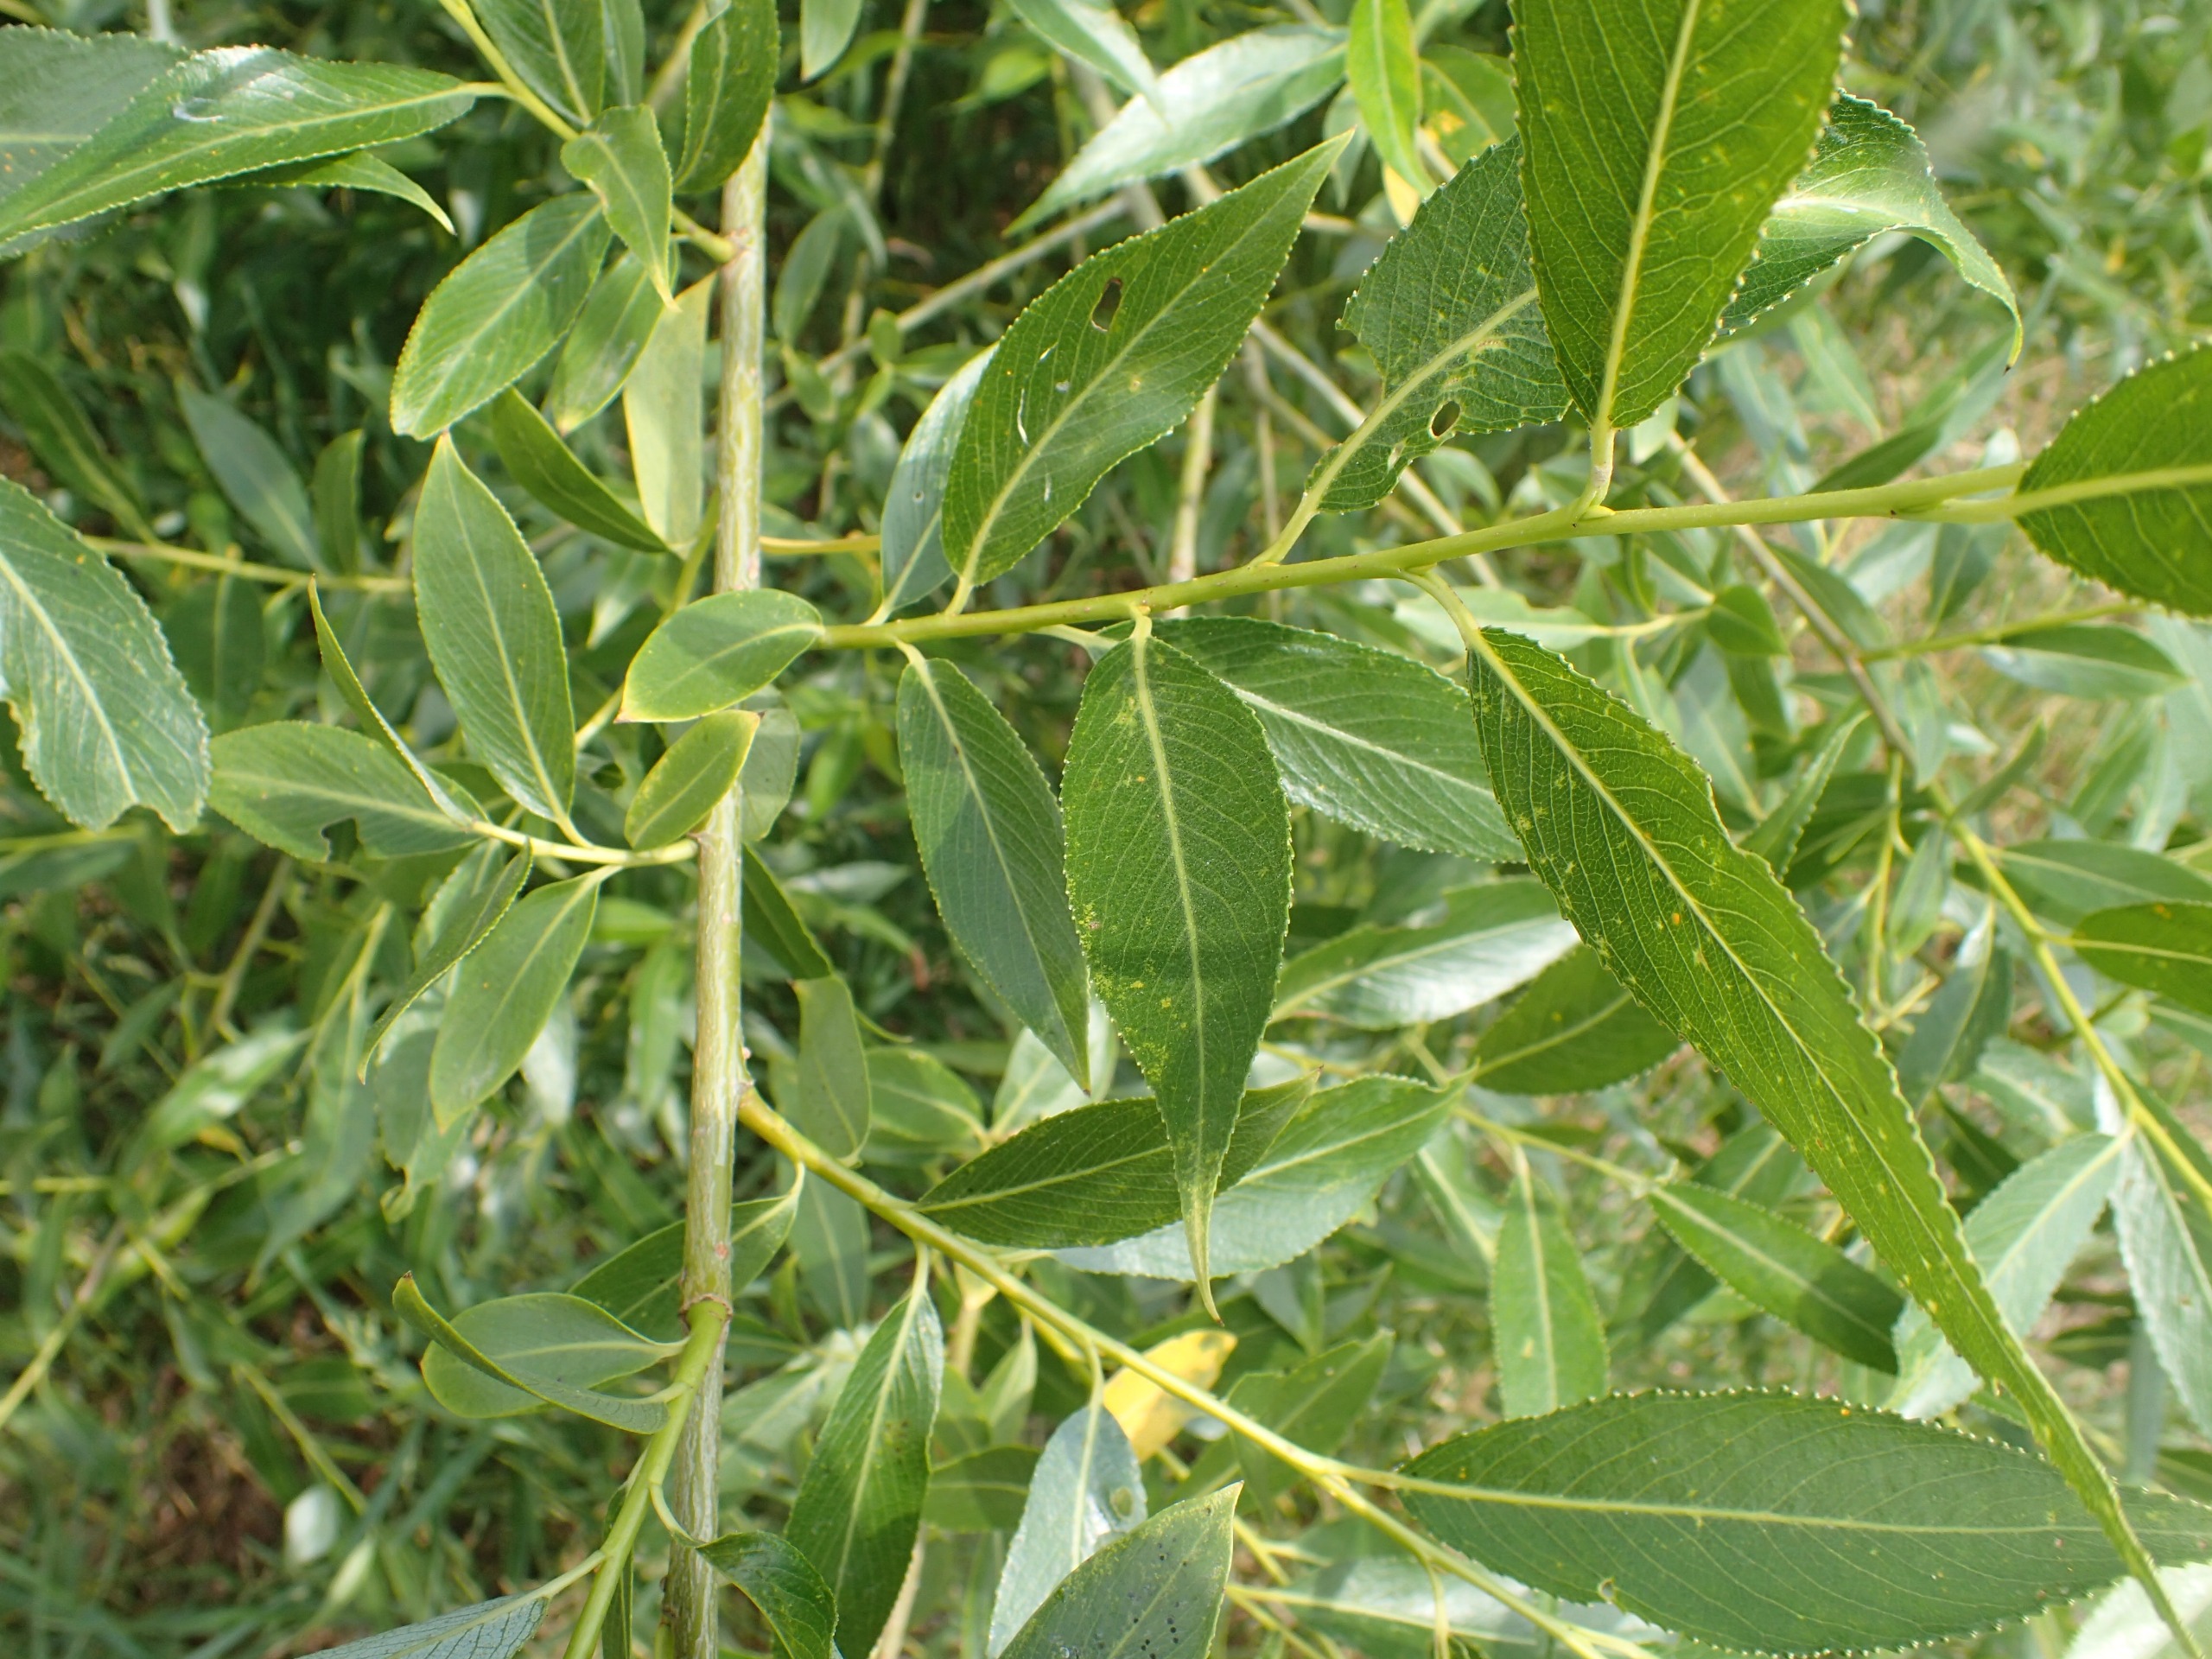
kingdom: Plantae
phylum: Tracheophyta
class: Magnoliopsida
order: Malpighiales
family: Salicaceae
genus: Salix
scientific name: Salix alba
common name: Skør-pil
